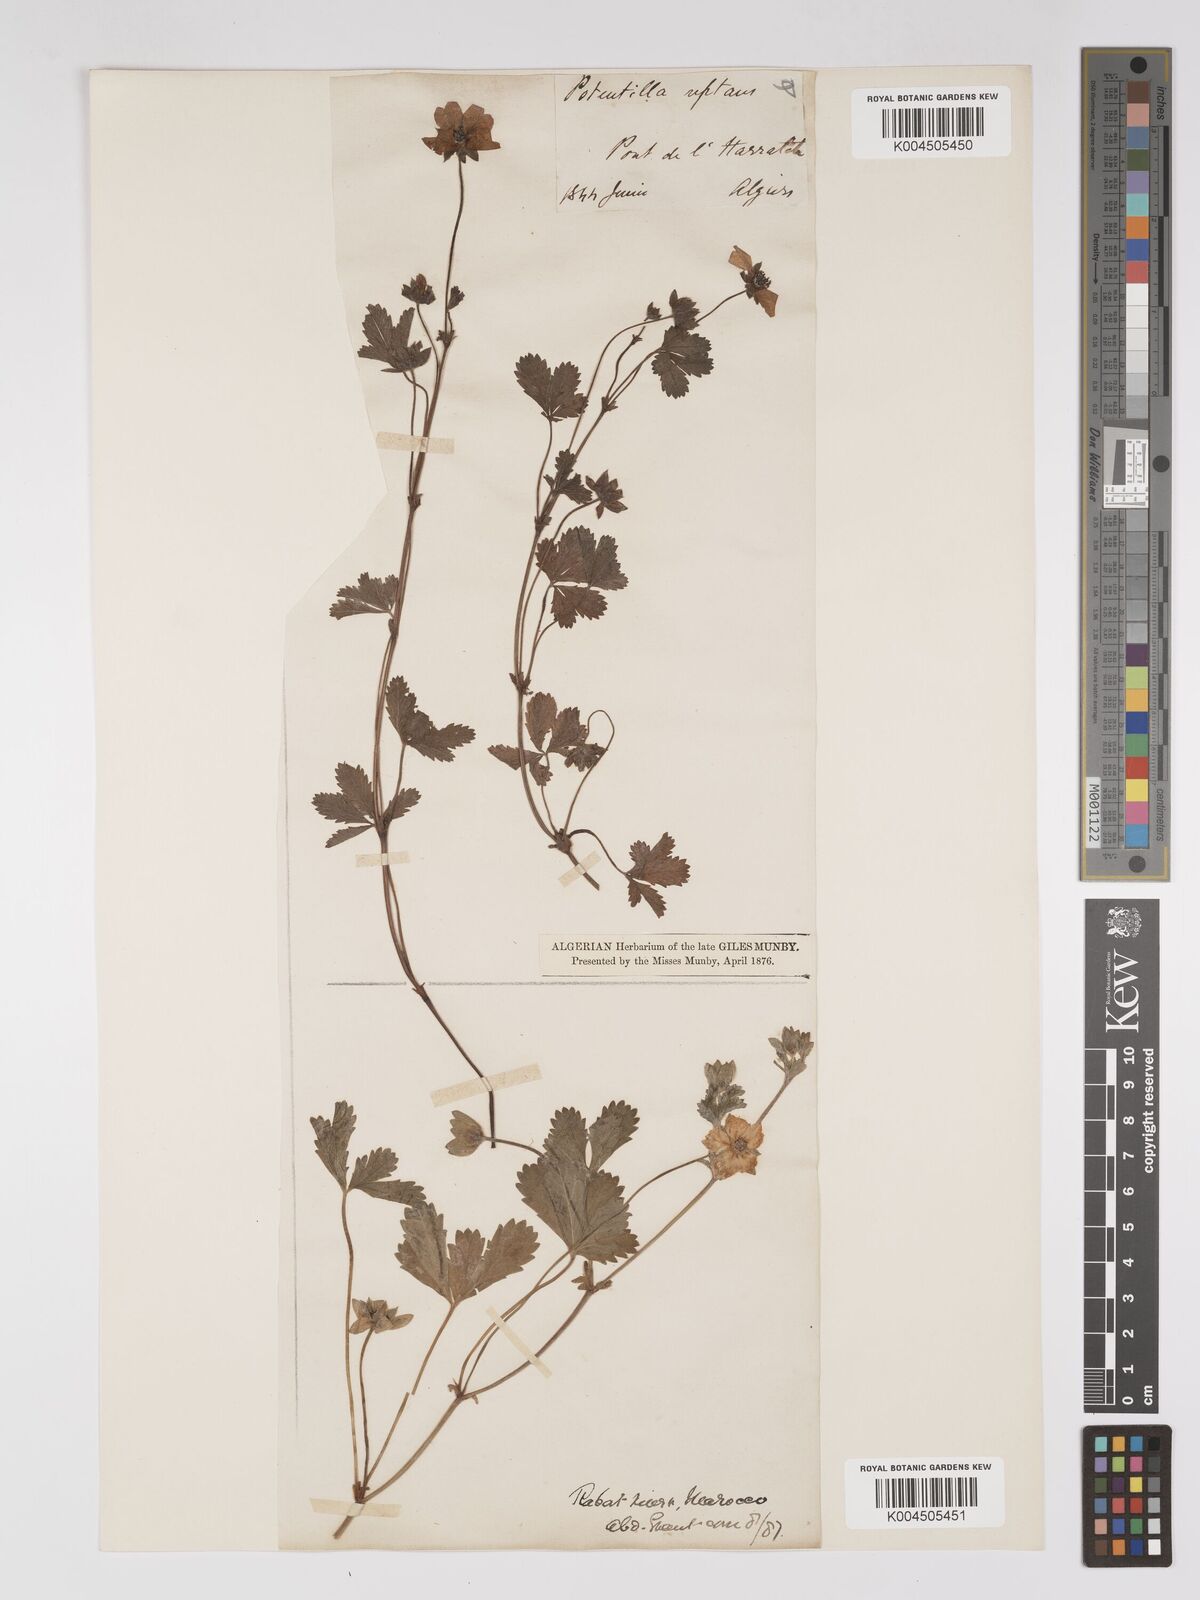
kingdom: Plantae
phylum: Tracheophyta
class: Magnoliopsida
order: Rosales
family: Rosaceae
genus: Potentilla
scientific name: Potentilla reptans
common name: Creeping cinquefoil
